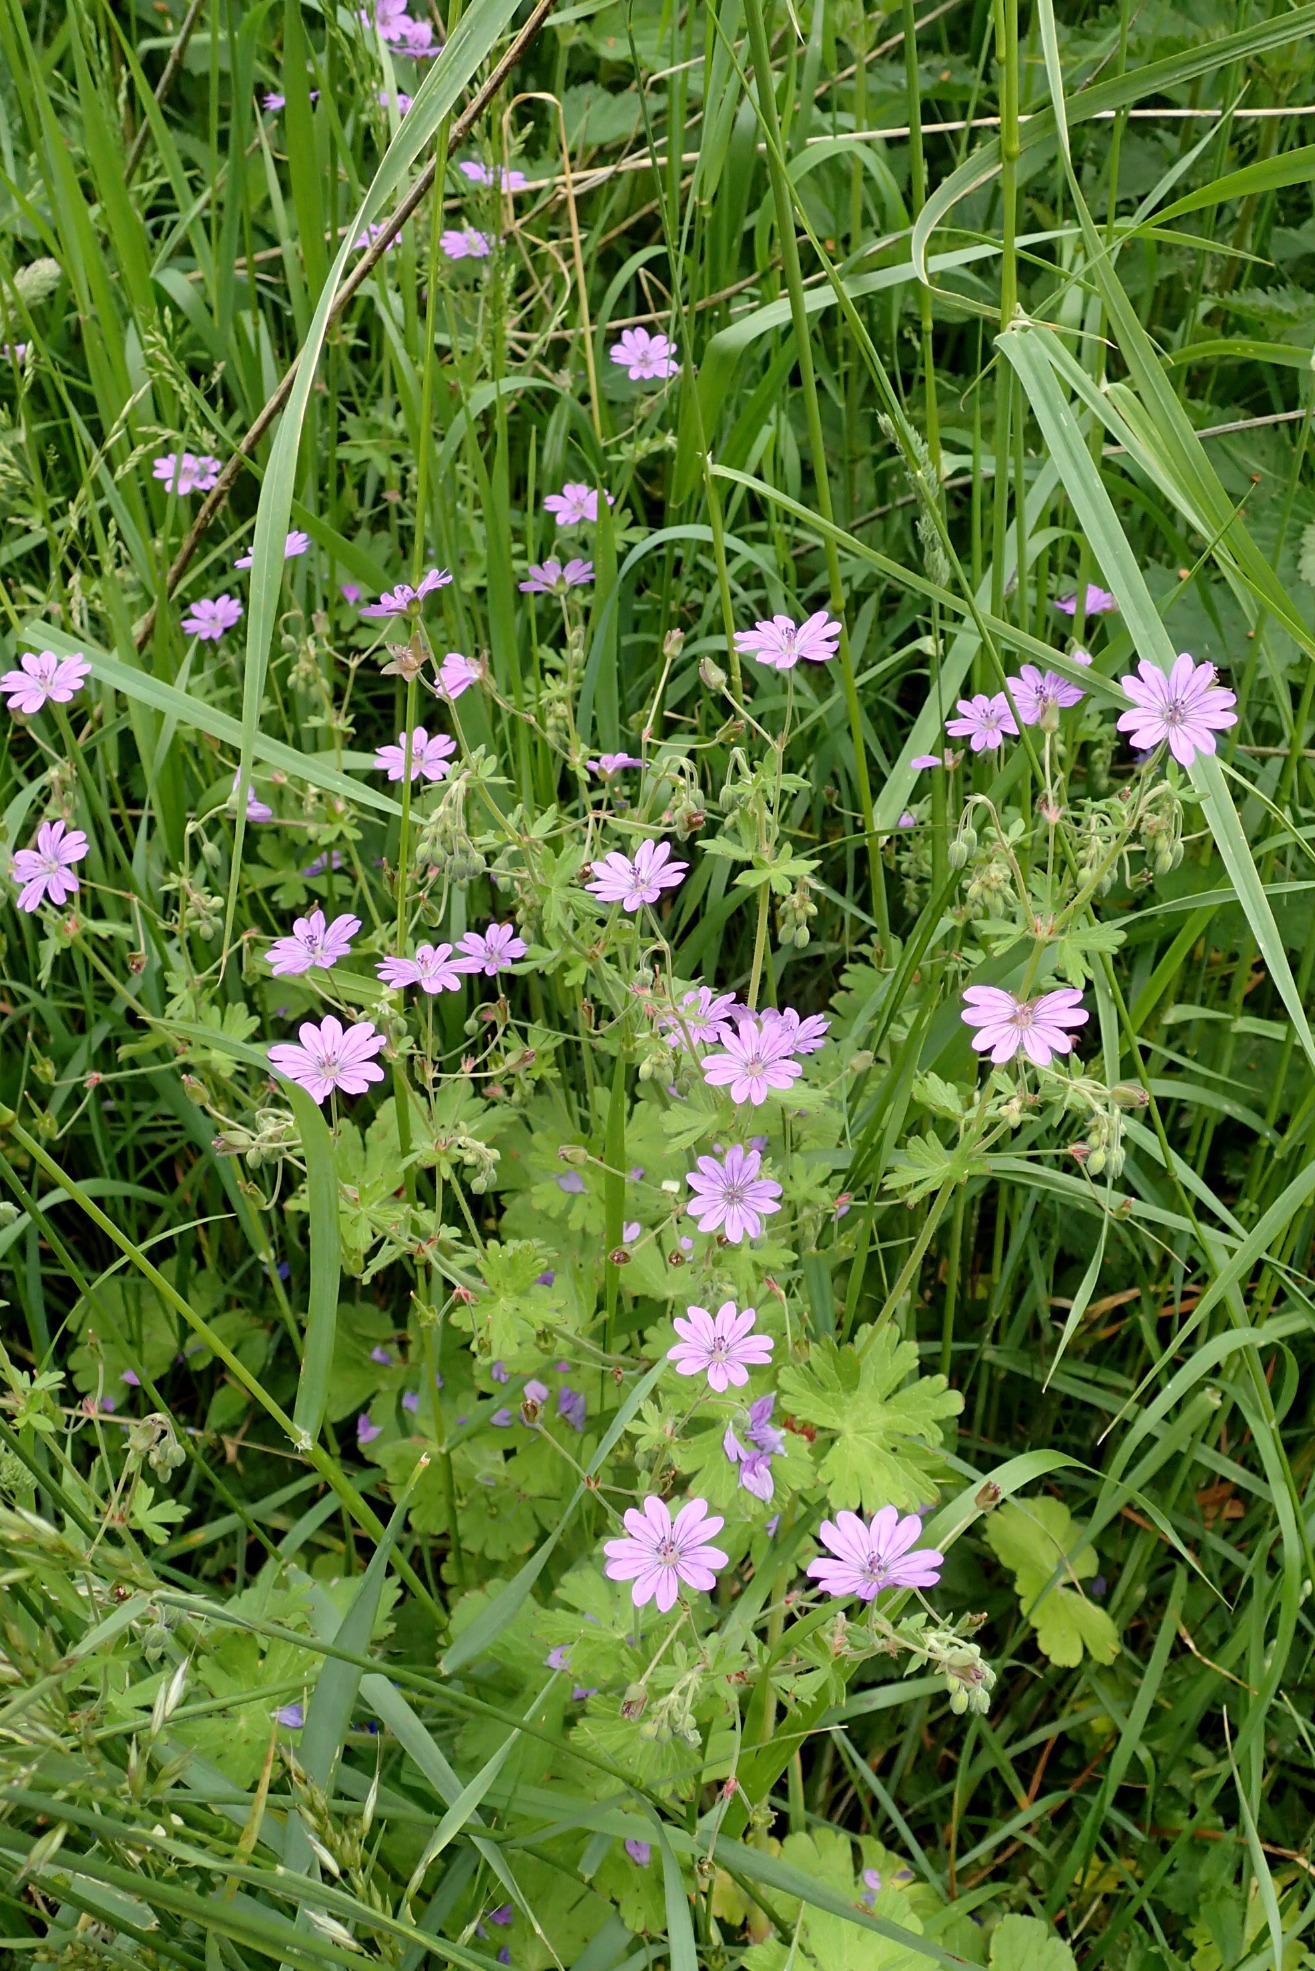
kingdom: Plantae
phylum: Tracheophyta
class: Magnoliopsida
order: Geraniales
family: Geraniaceae
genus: Geranium
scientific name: Geranium pyrenaicum
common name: Pyrenæisk storkenæb
